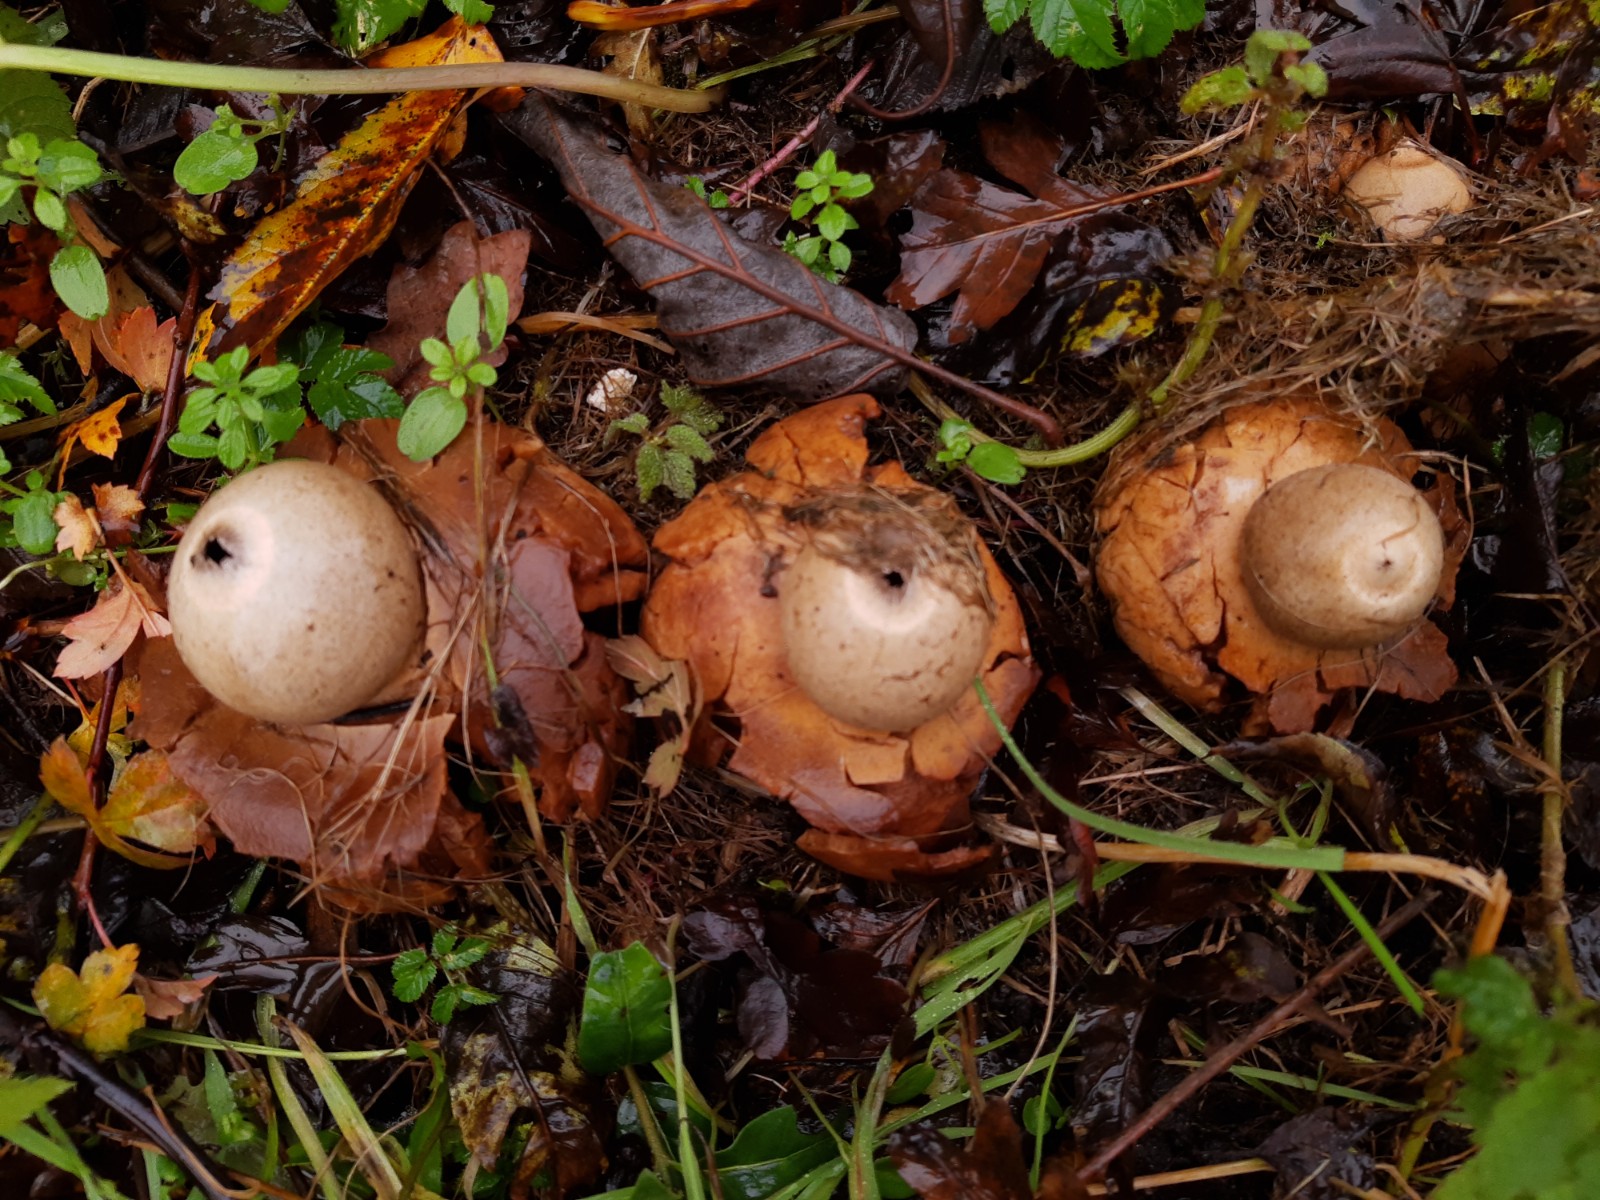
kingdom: Fungi
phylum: Basidiomycota
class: Agaricomycetes
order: Geastrales
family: Geastraceae
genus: Geastrum
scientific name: Geastrum michelianum
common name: kødet stjernebold
